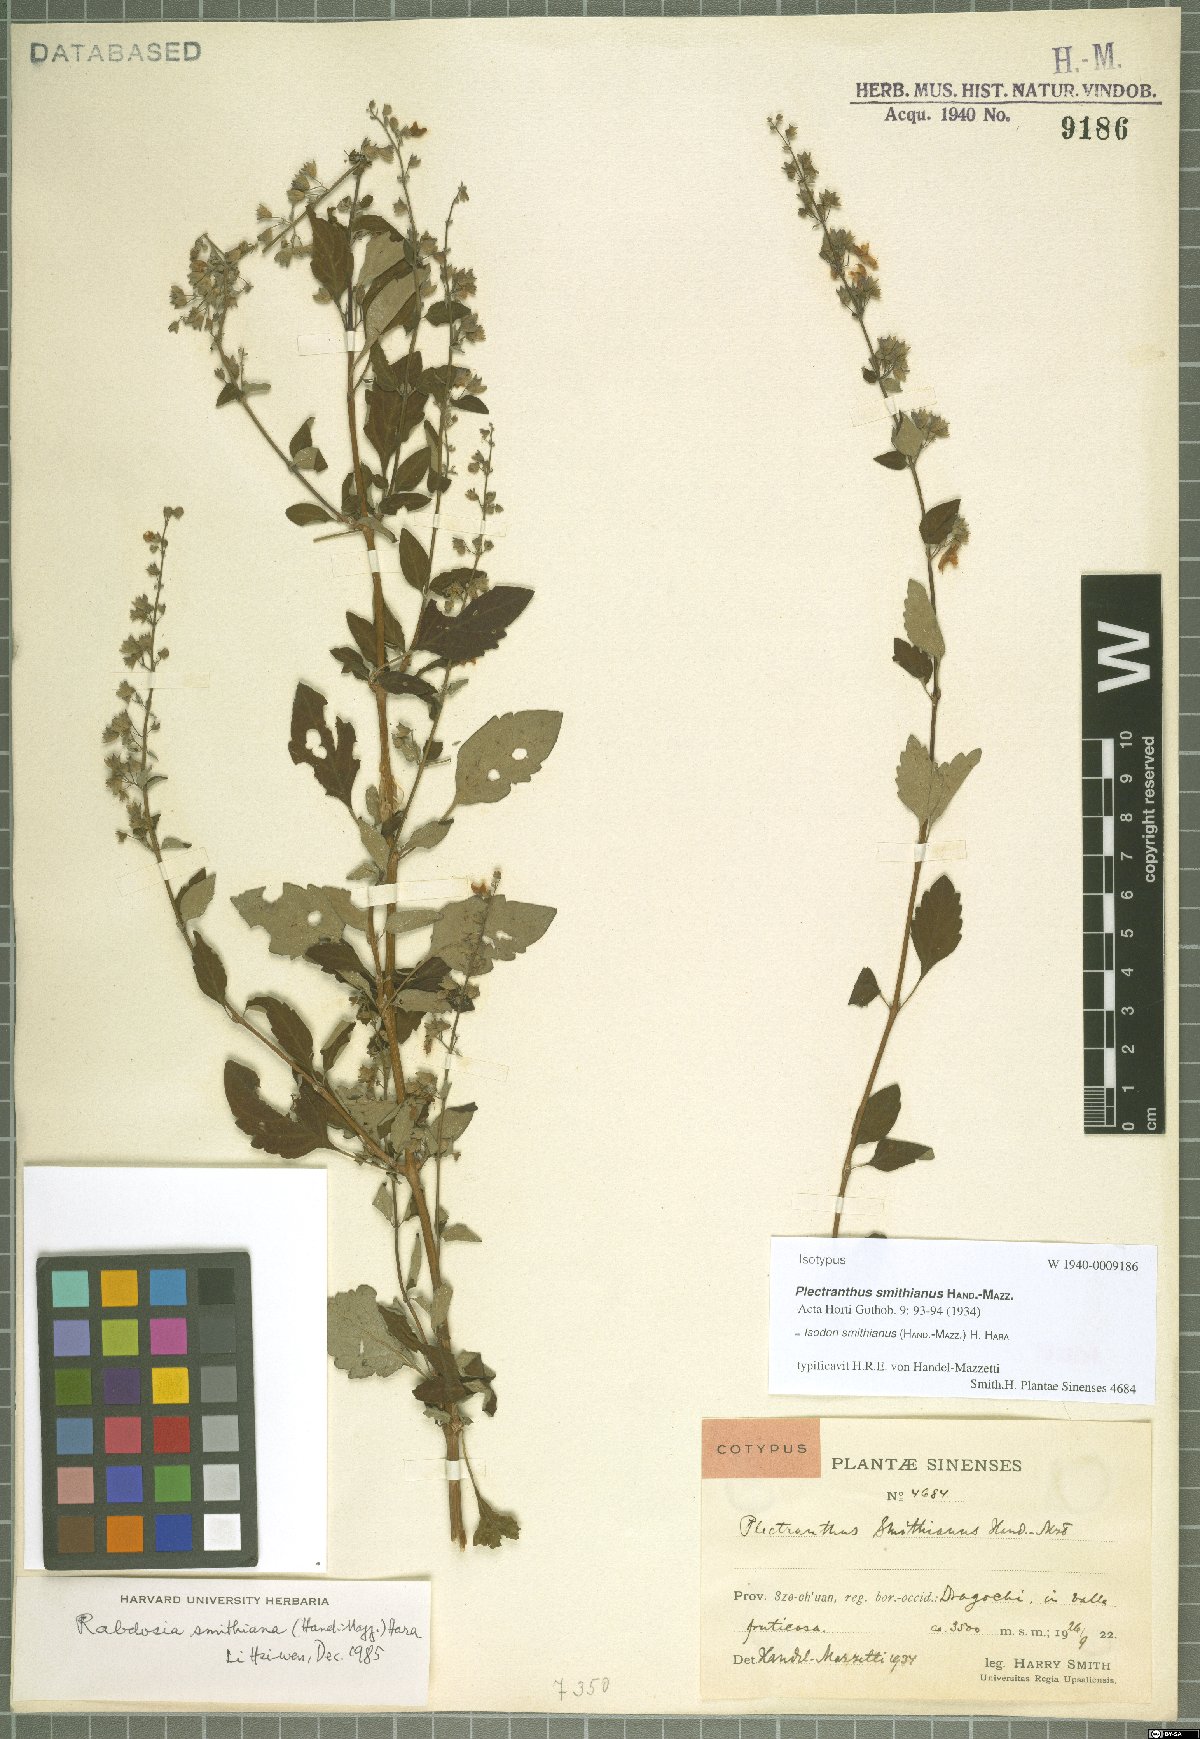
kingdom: Plantae
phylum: Tracheophyta
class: Magnoliopsida
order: Lamiales
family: Lamiaceae
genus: Isodon
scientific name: Isodon smithianus
